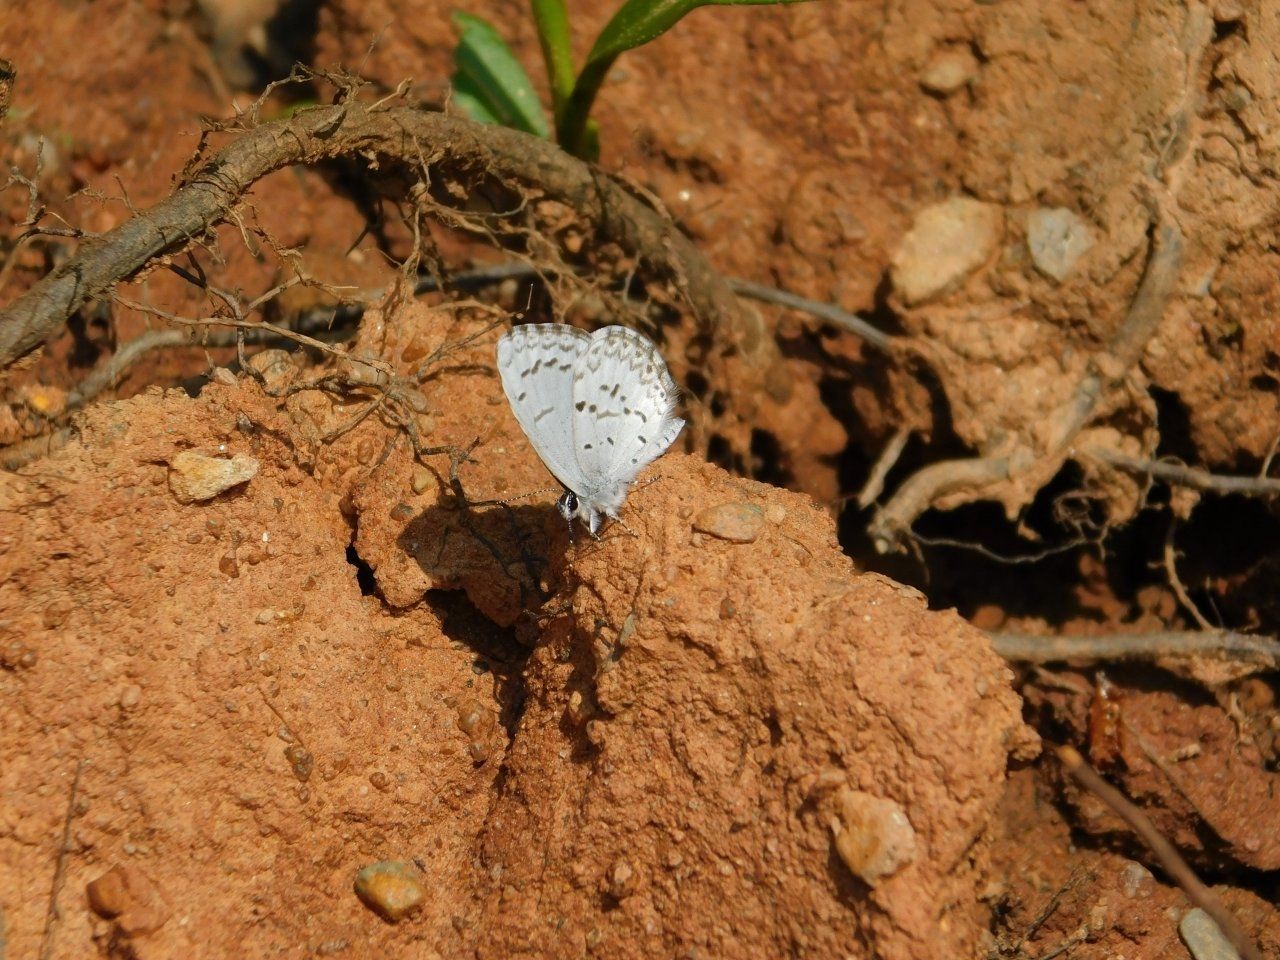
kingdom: Animalia
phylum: Arthropoda
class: Insecta
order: Lepidoptera
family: Lycaenidae
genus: Celastrina
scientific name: Celastrina lucia
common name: Northern Spring Azure
